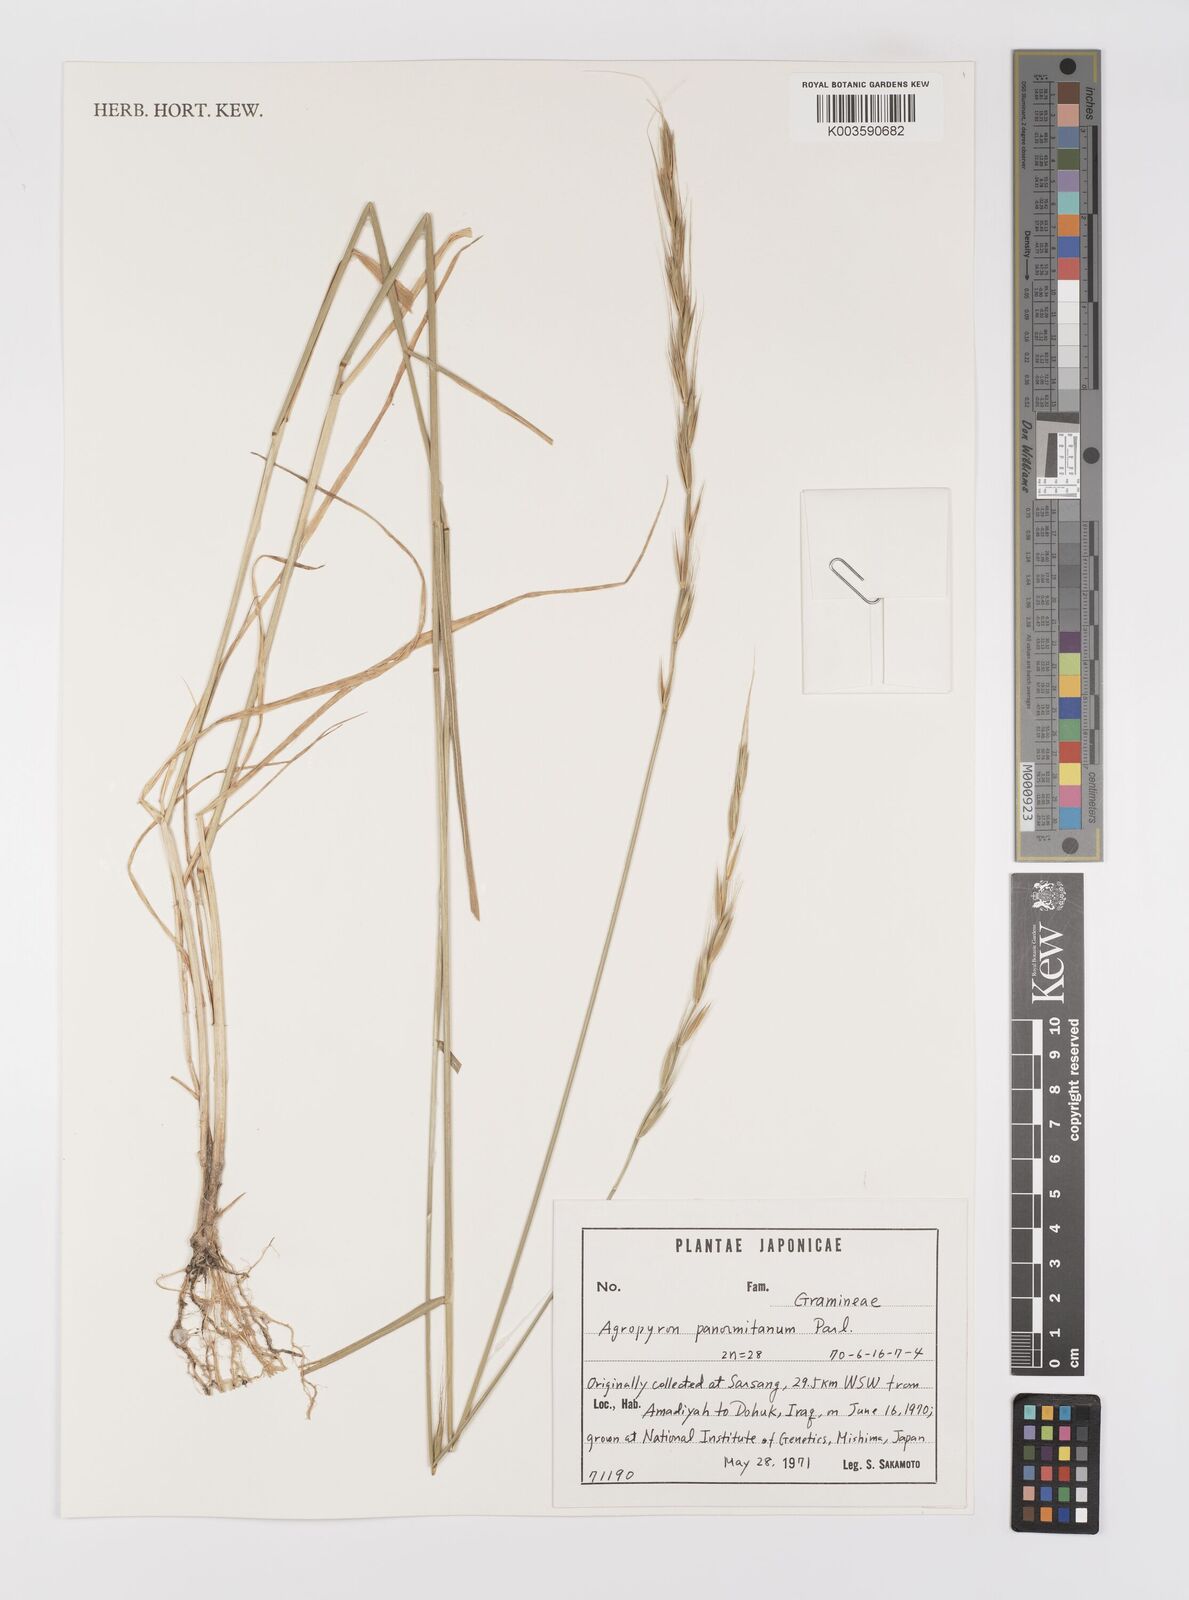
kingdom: Plantae
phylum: Tracheophyta
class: Liliopsida
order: Poales
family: Poaceae
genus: Elymus
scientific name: Elymus panormitanus
